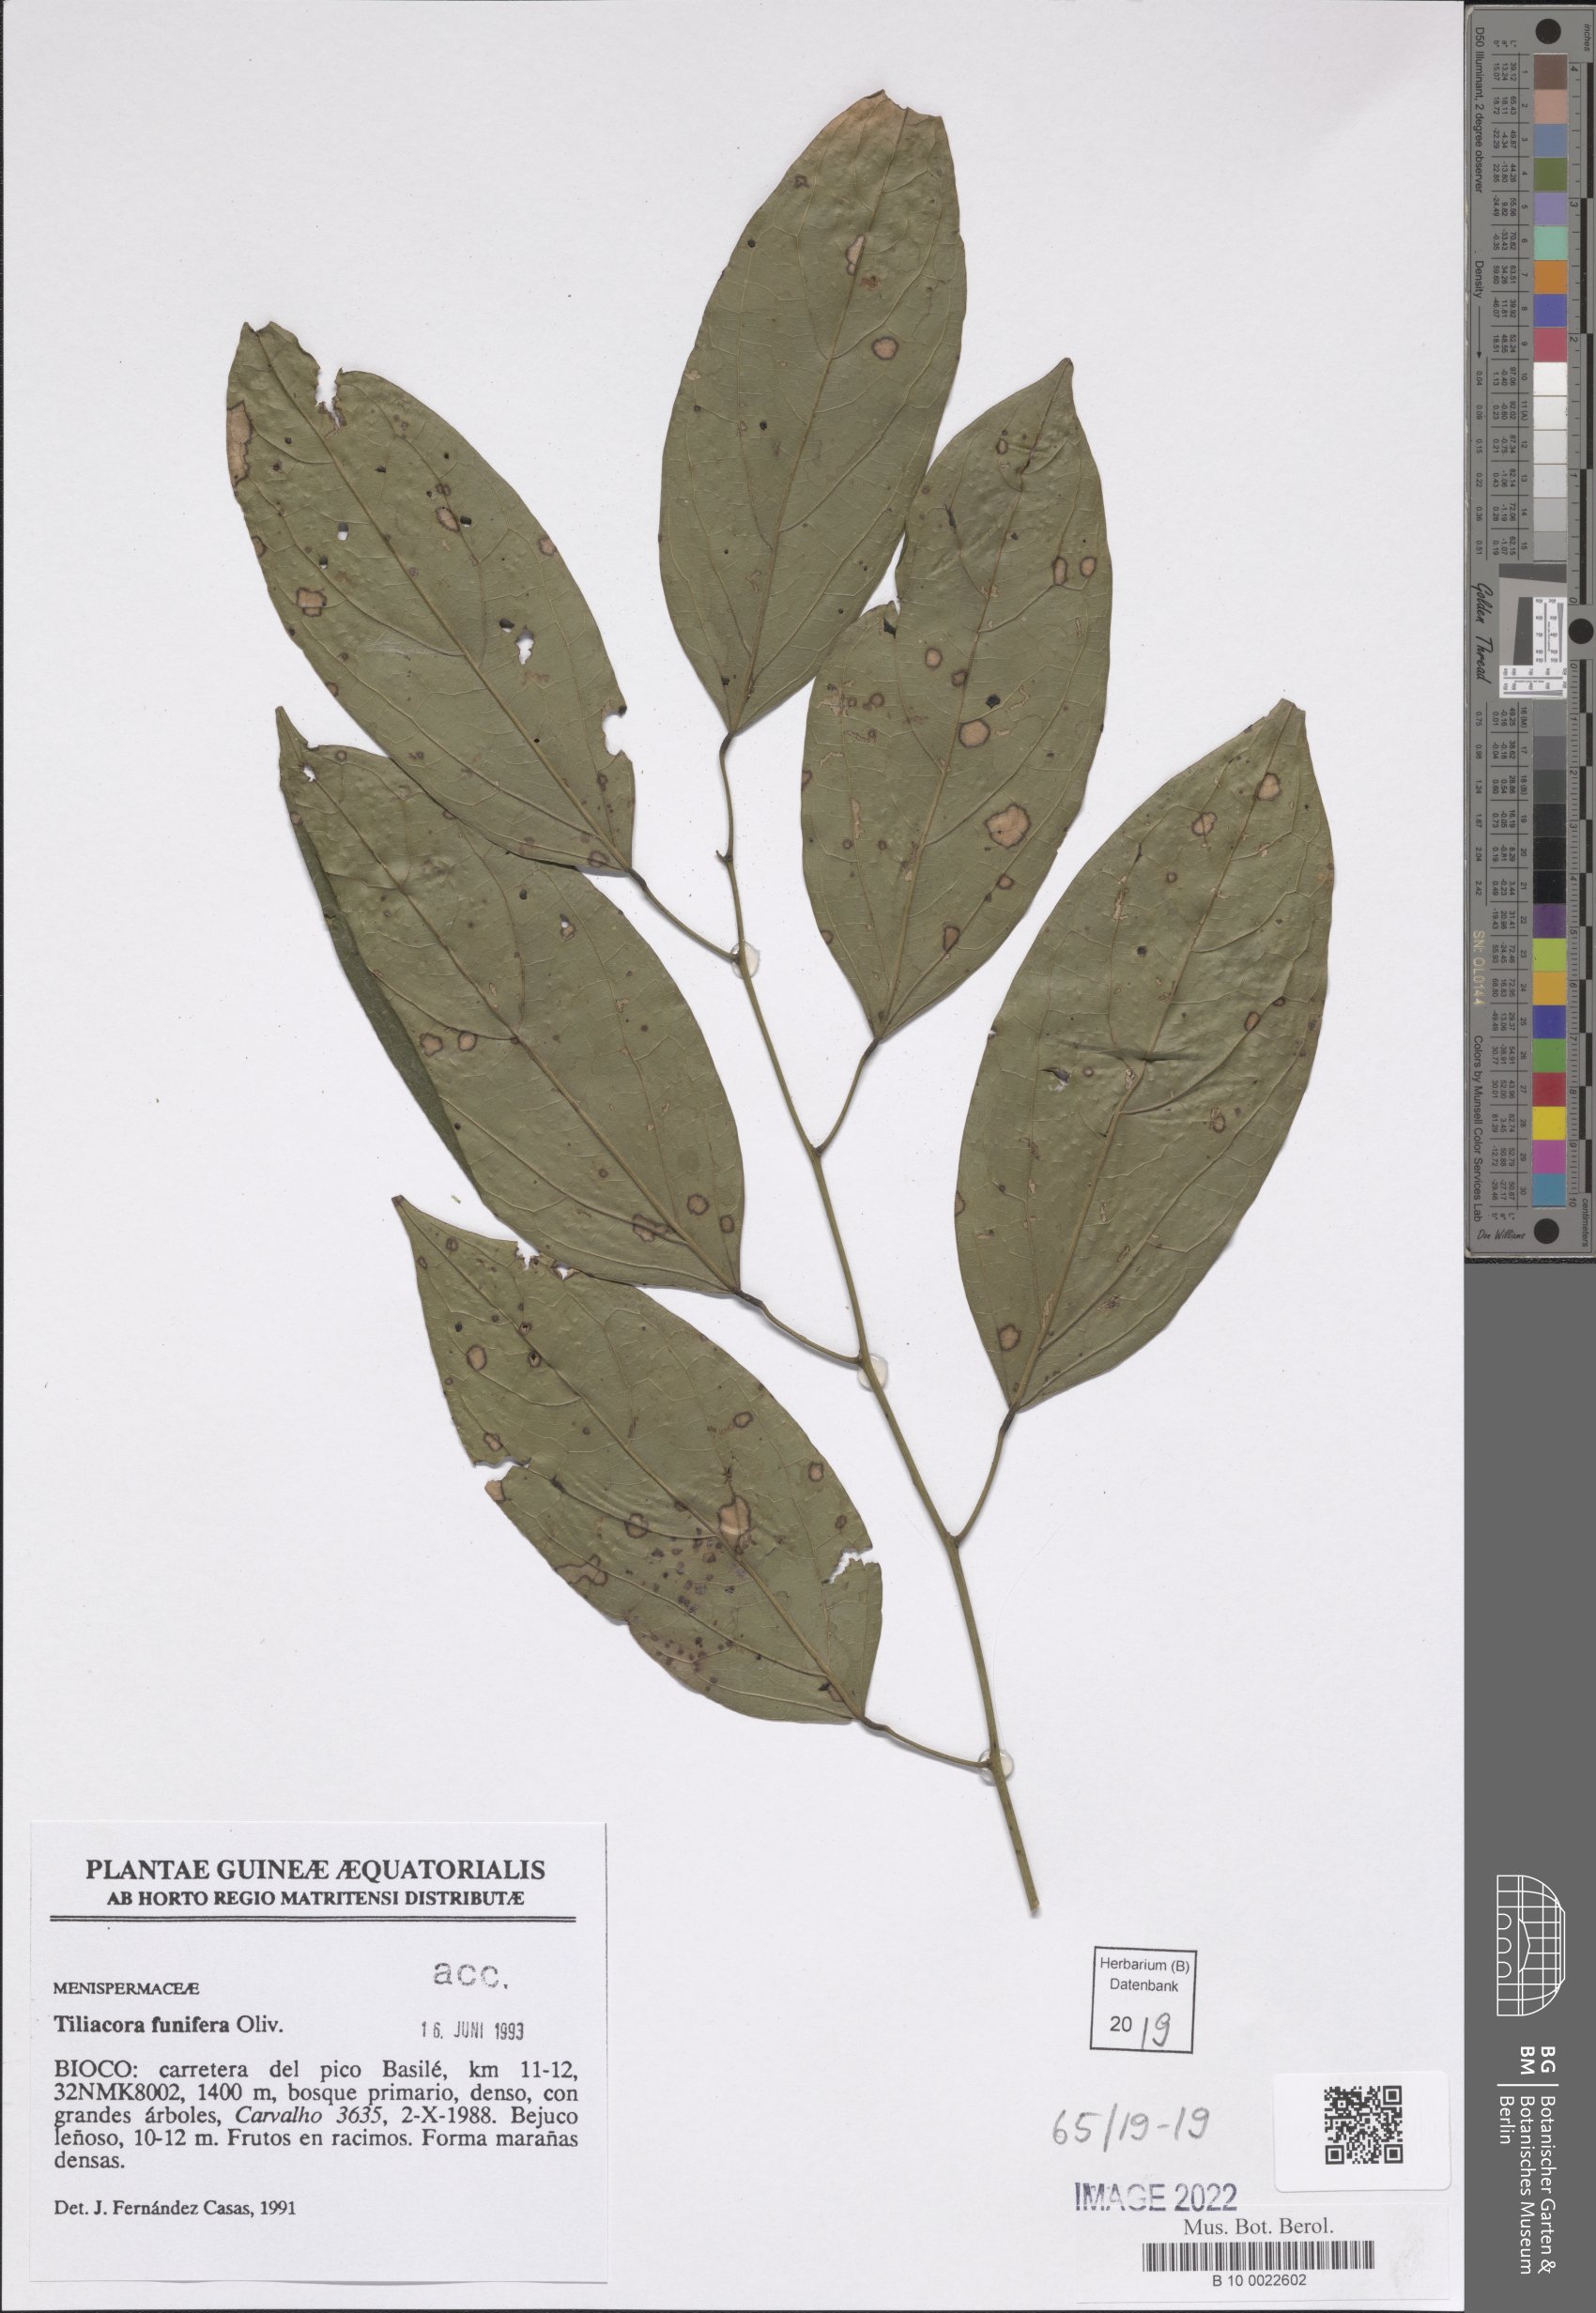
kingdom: Plantae
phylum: Tracheophyta
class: Magnoliopsida
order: Ranunculales
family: Menispermaceae
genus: Tiliacora
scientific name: Tiliacora funifera
